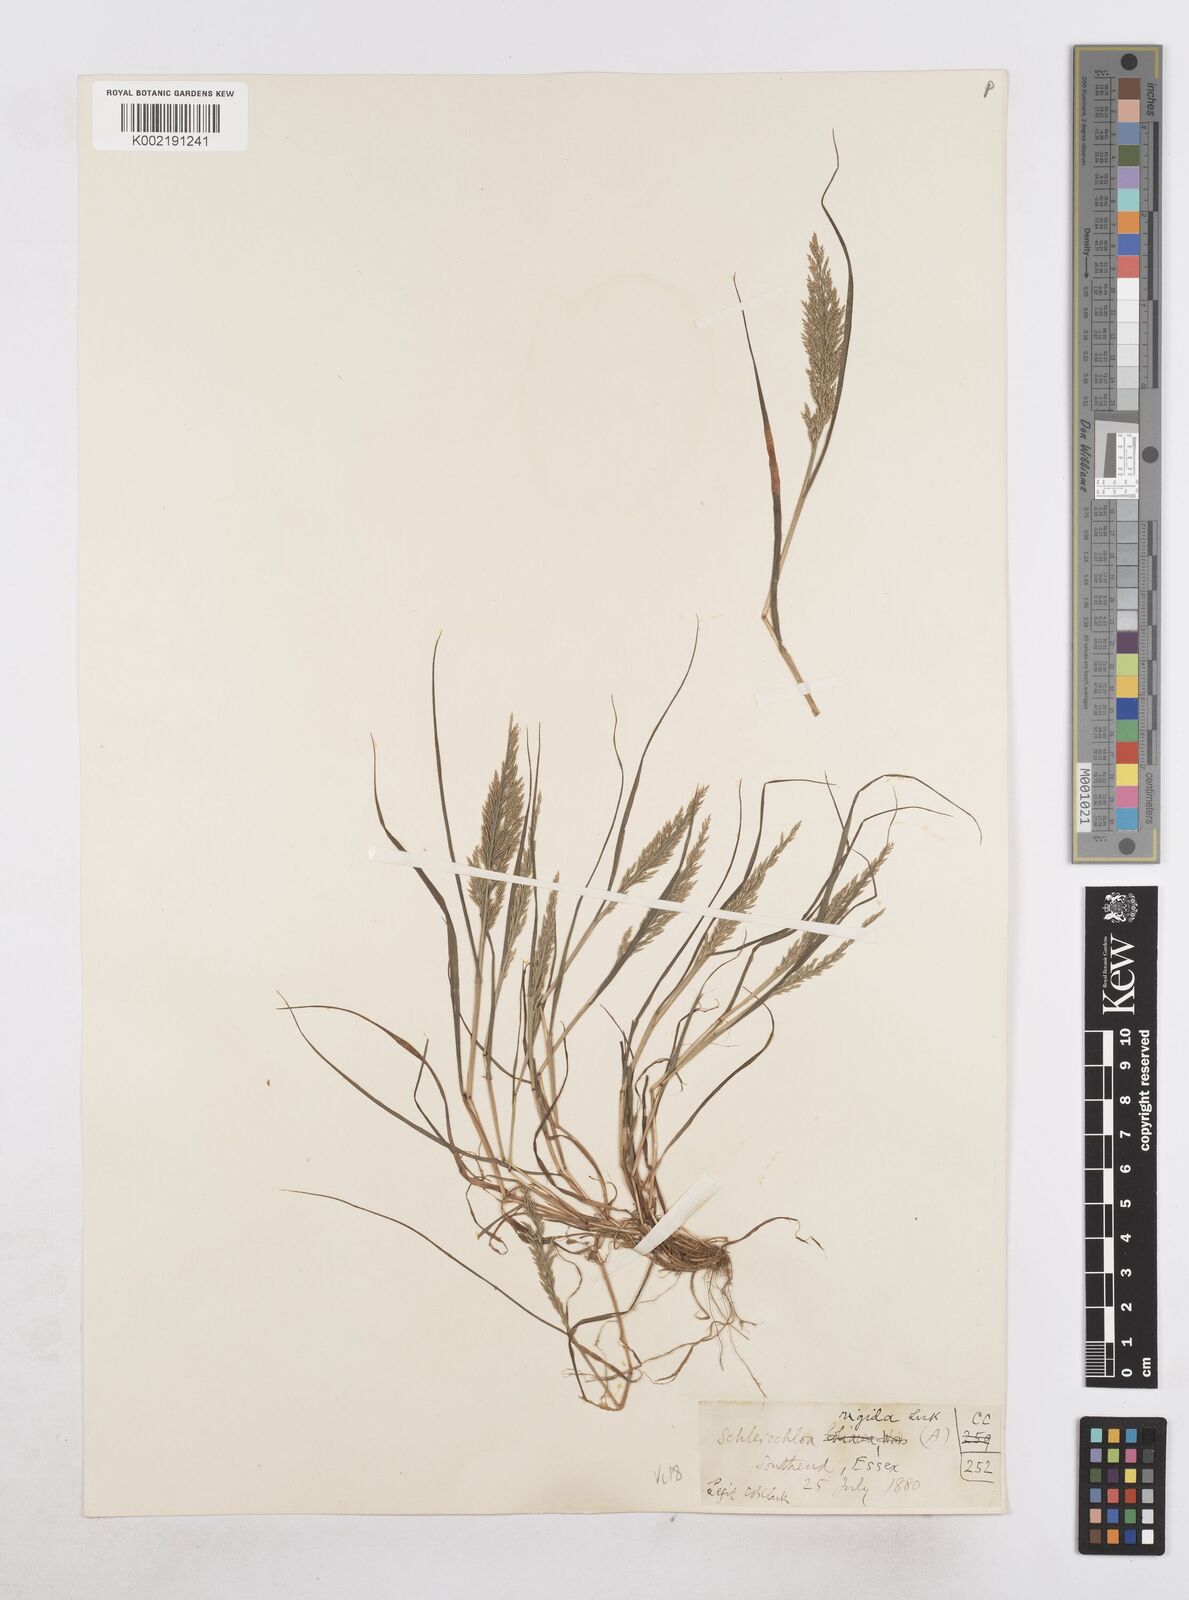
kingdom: Plantae
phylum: Tracheophyta
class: Liliopsida
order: Poales
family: Poaceae
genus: Catapodium
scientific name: Catapodium rigidum
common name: Fern-grass
